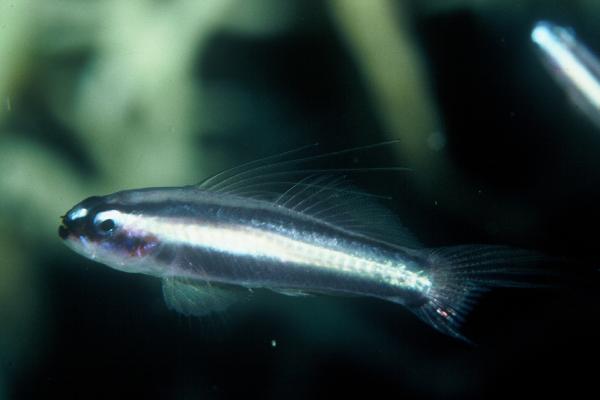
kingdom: Animalia
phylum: Chordata
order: Perciformes
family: Microdesmidae
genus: Parioglossus
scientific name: Parioglossus
